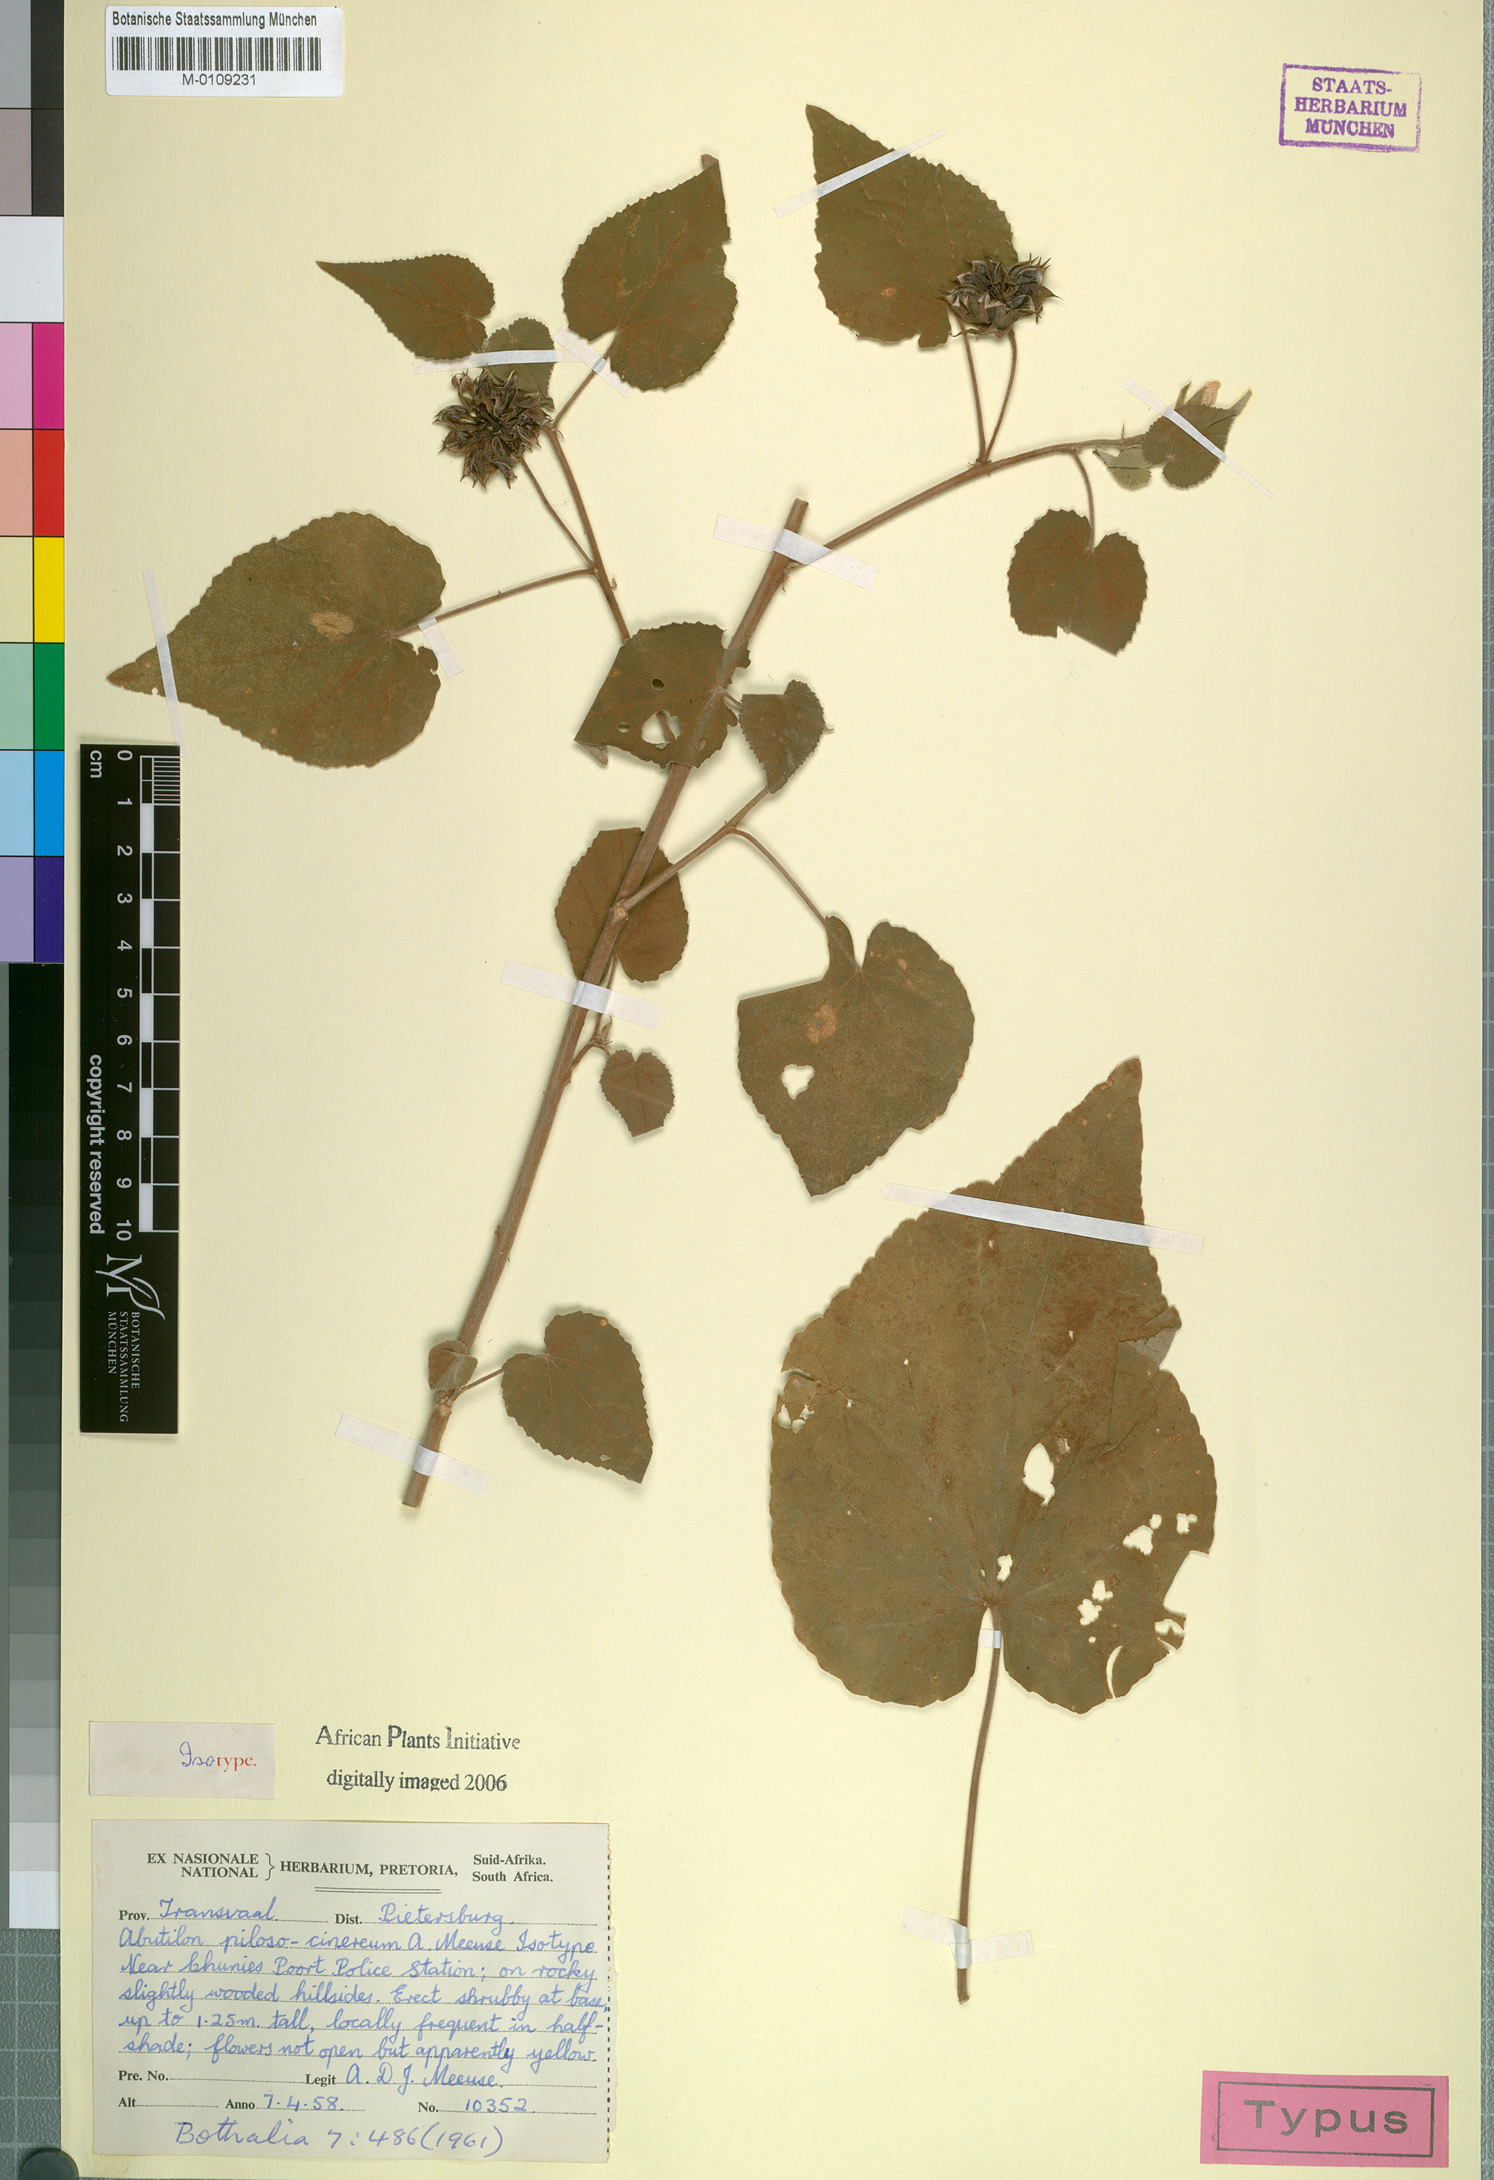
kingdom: Plantae
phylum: Tracheophyta
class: Magnoliopsida
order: Malvales
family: Malvaceae
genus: Abutilon
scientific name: Abutilon pilosocinereum
